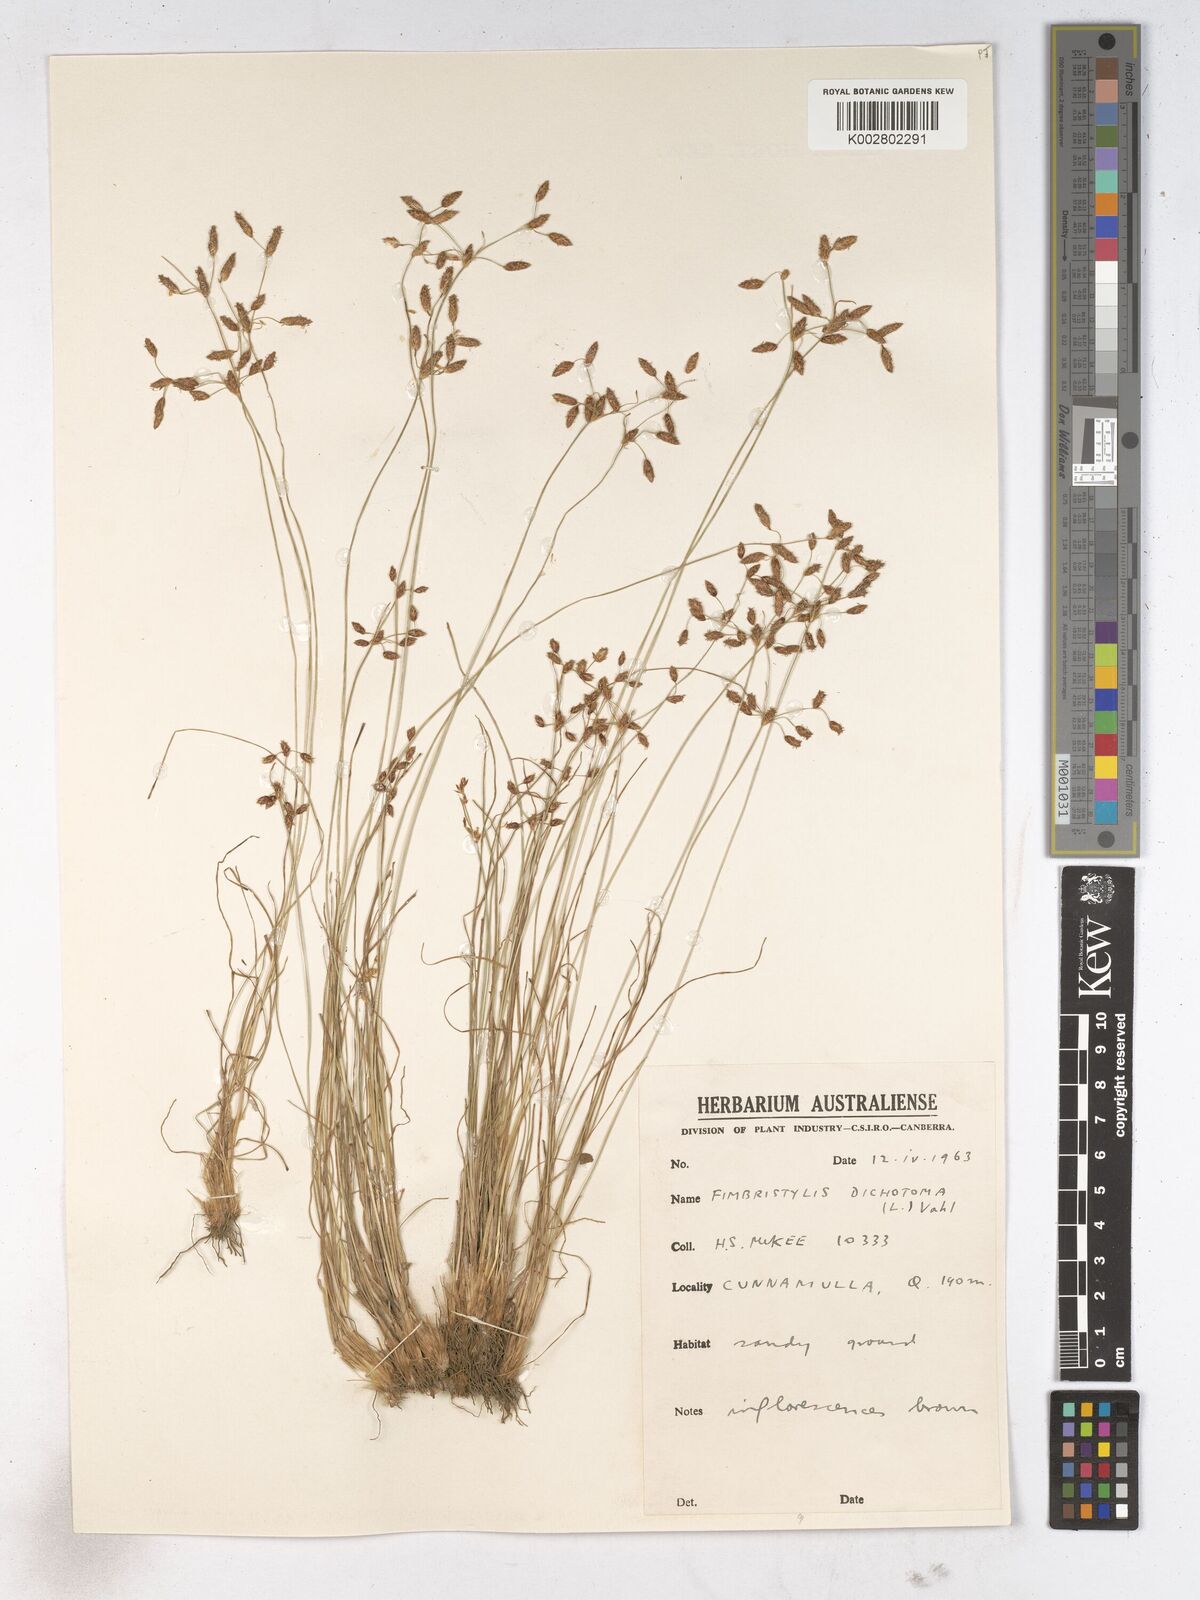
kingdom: Plantae
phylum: Tracheophyta
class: Liliopsida
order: Poales
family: Cyperaceae
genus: Fimbristylis
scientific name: Fimbristylis dichotoma
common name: Forked fimbry
